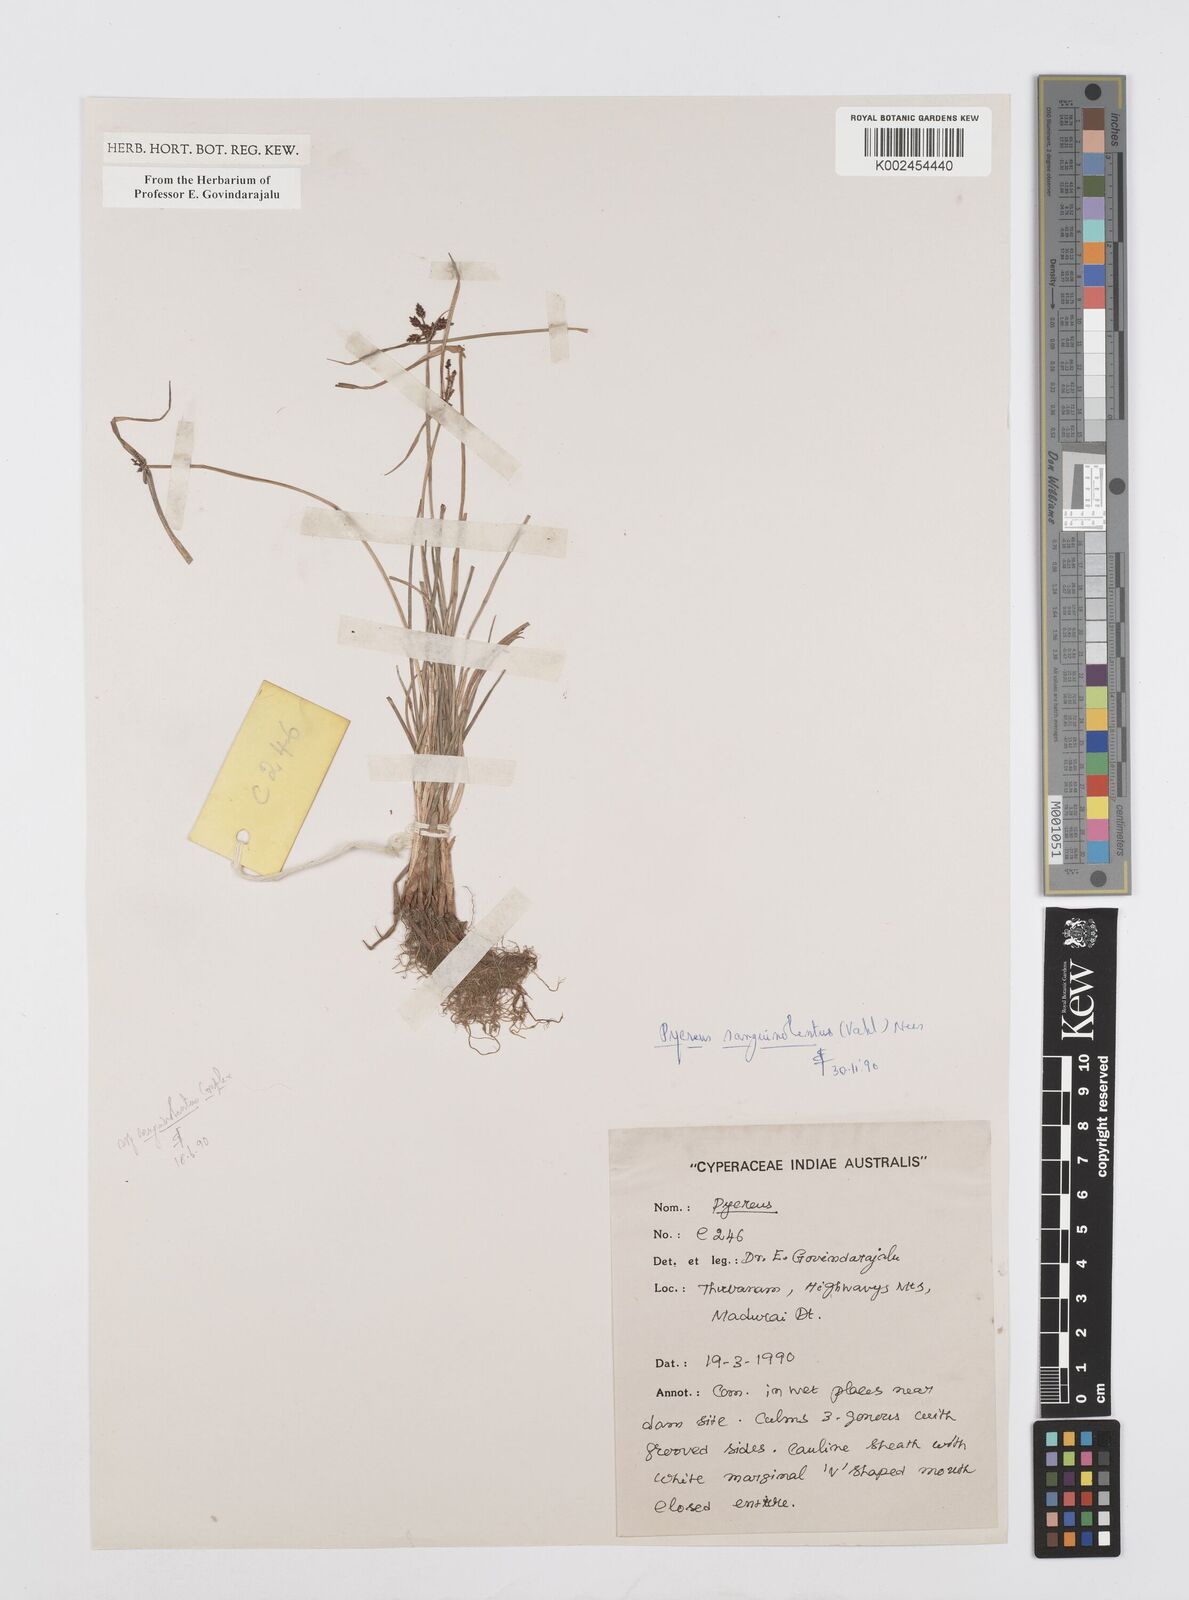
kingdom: Plantae
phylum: Tracheophyta
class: Liliopsida
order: Poales
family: Cyperaceae
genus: Cyperus
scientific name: Cyperus sanguinolentus
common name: Purpleglume flatsedge
